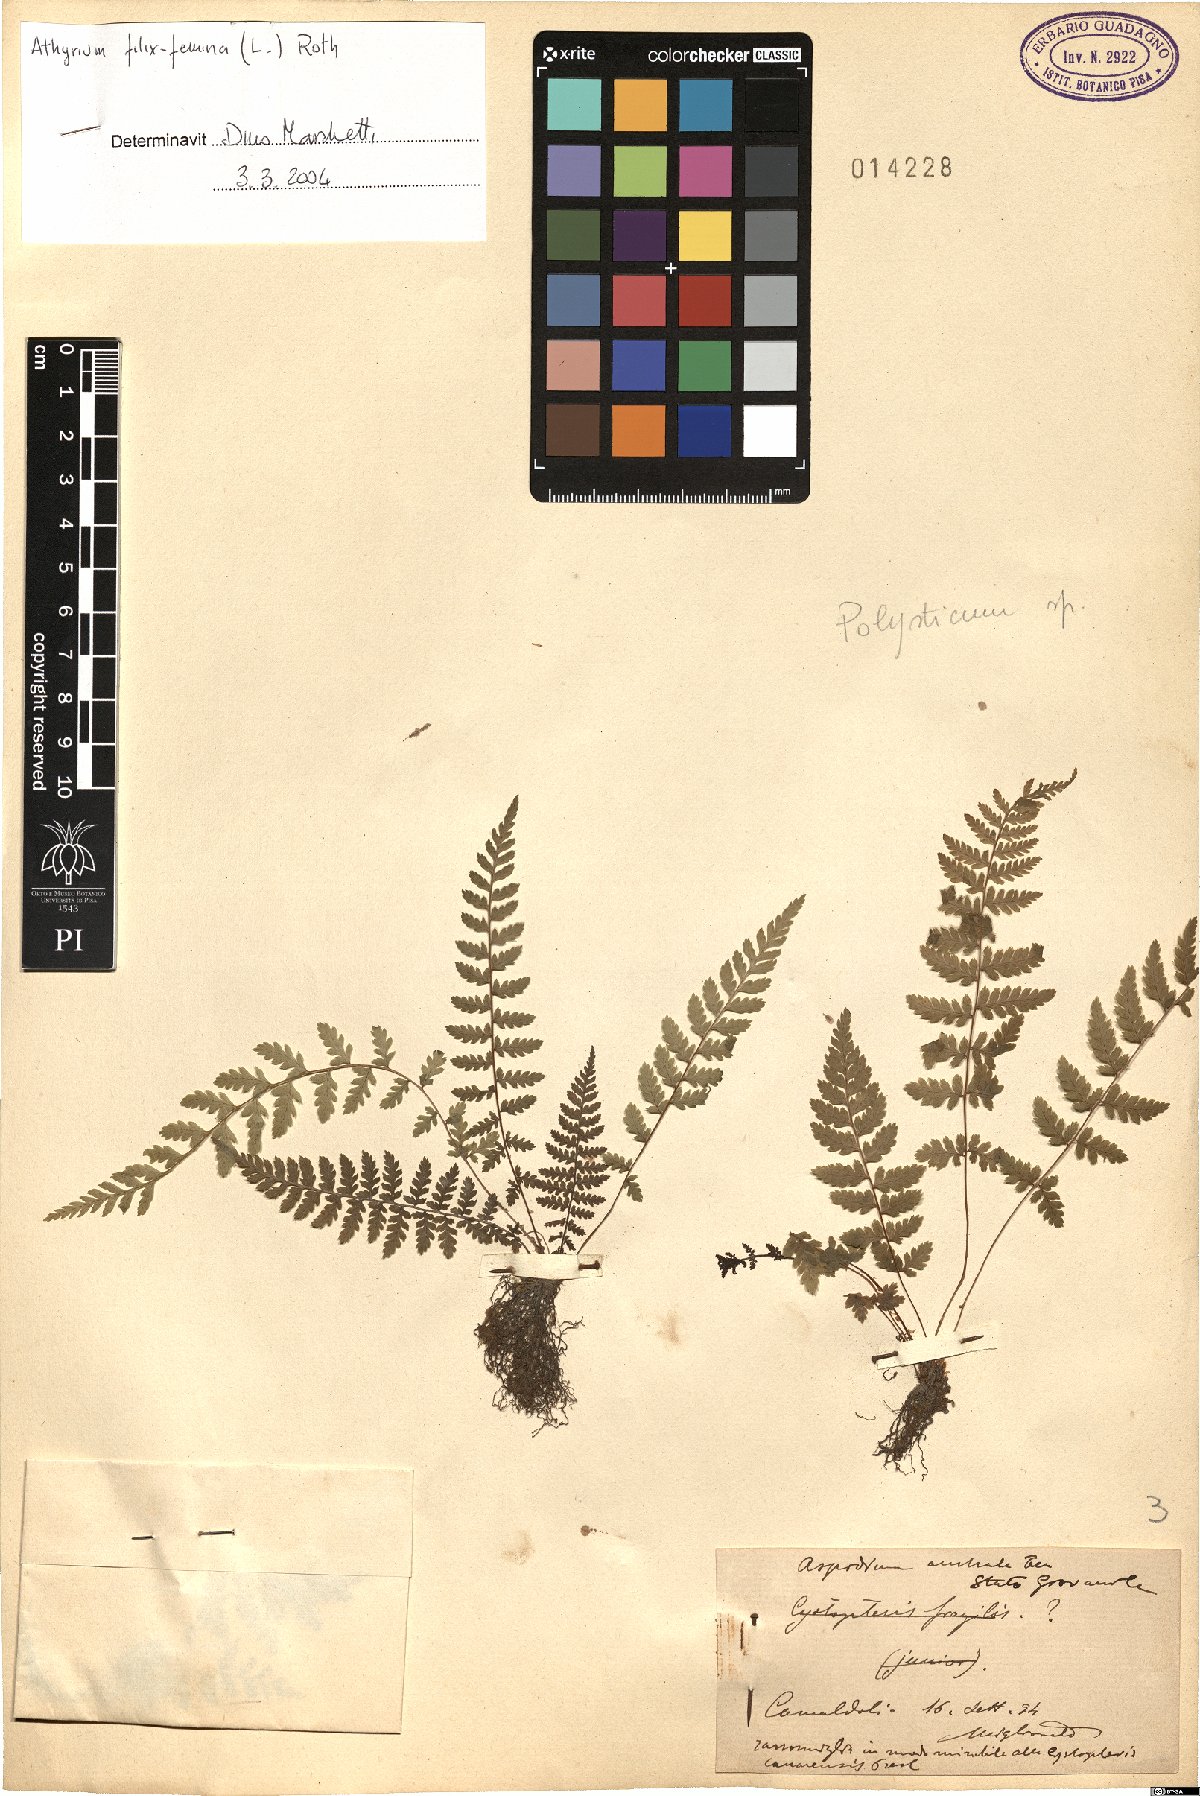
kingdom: Plantae
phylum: Tracheophyta
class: Polypodiopsida
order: Polypodiales
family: Athyriaceae
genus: Athyrium
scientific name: Athyrium filix-femina
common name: Lady fern
